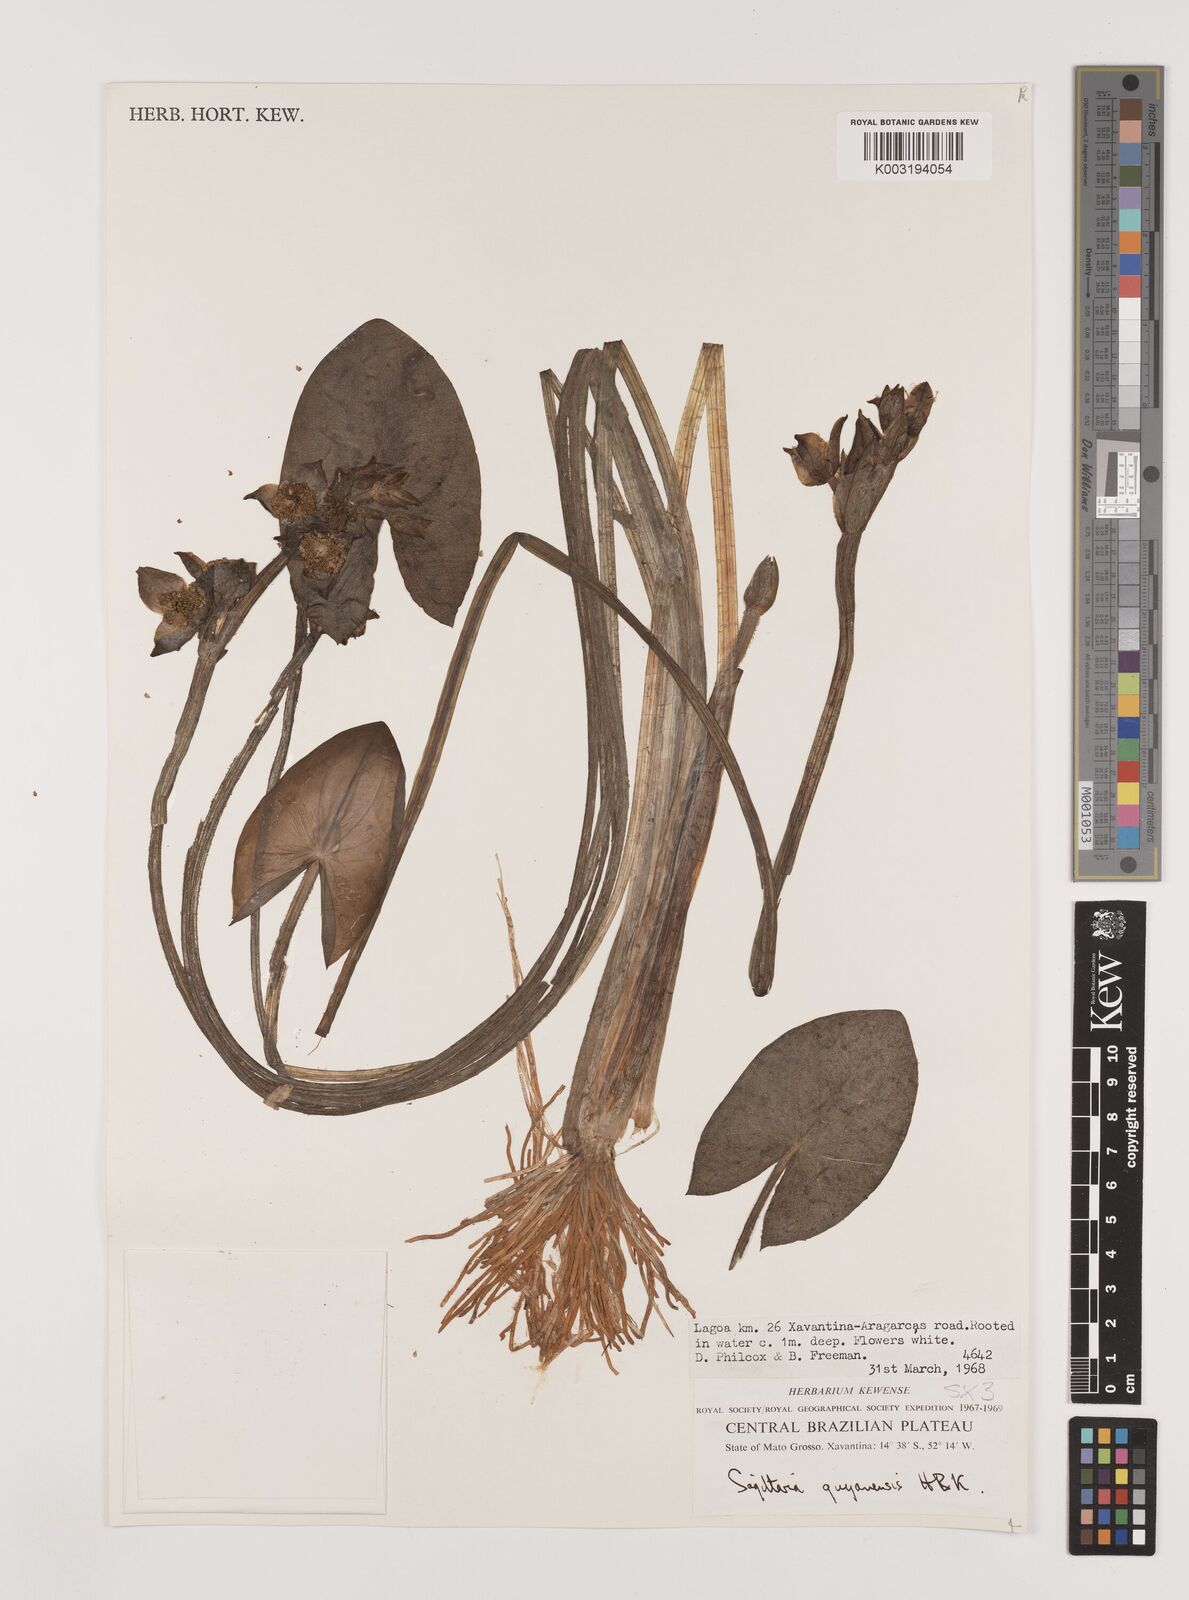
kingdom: Plantae
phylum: Tracheophyta
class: Liliopsida
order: Alismatales
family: Alismataceae
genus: Sagittaria
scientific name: Sagittaria guayanensis
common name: Guyanese arrowhead
